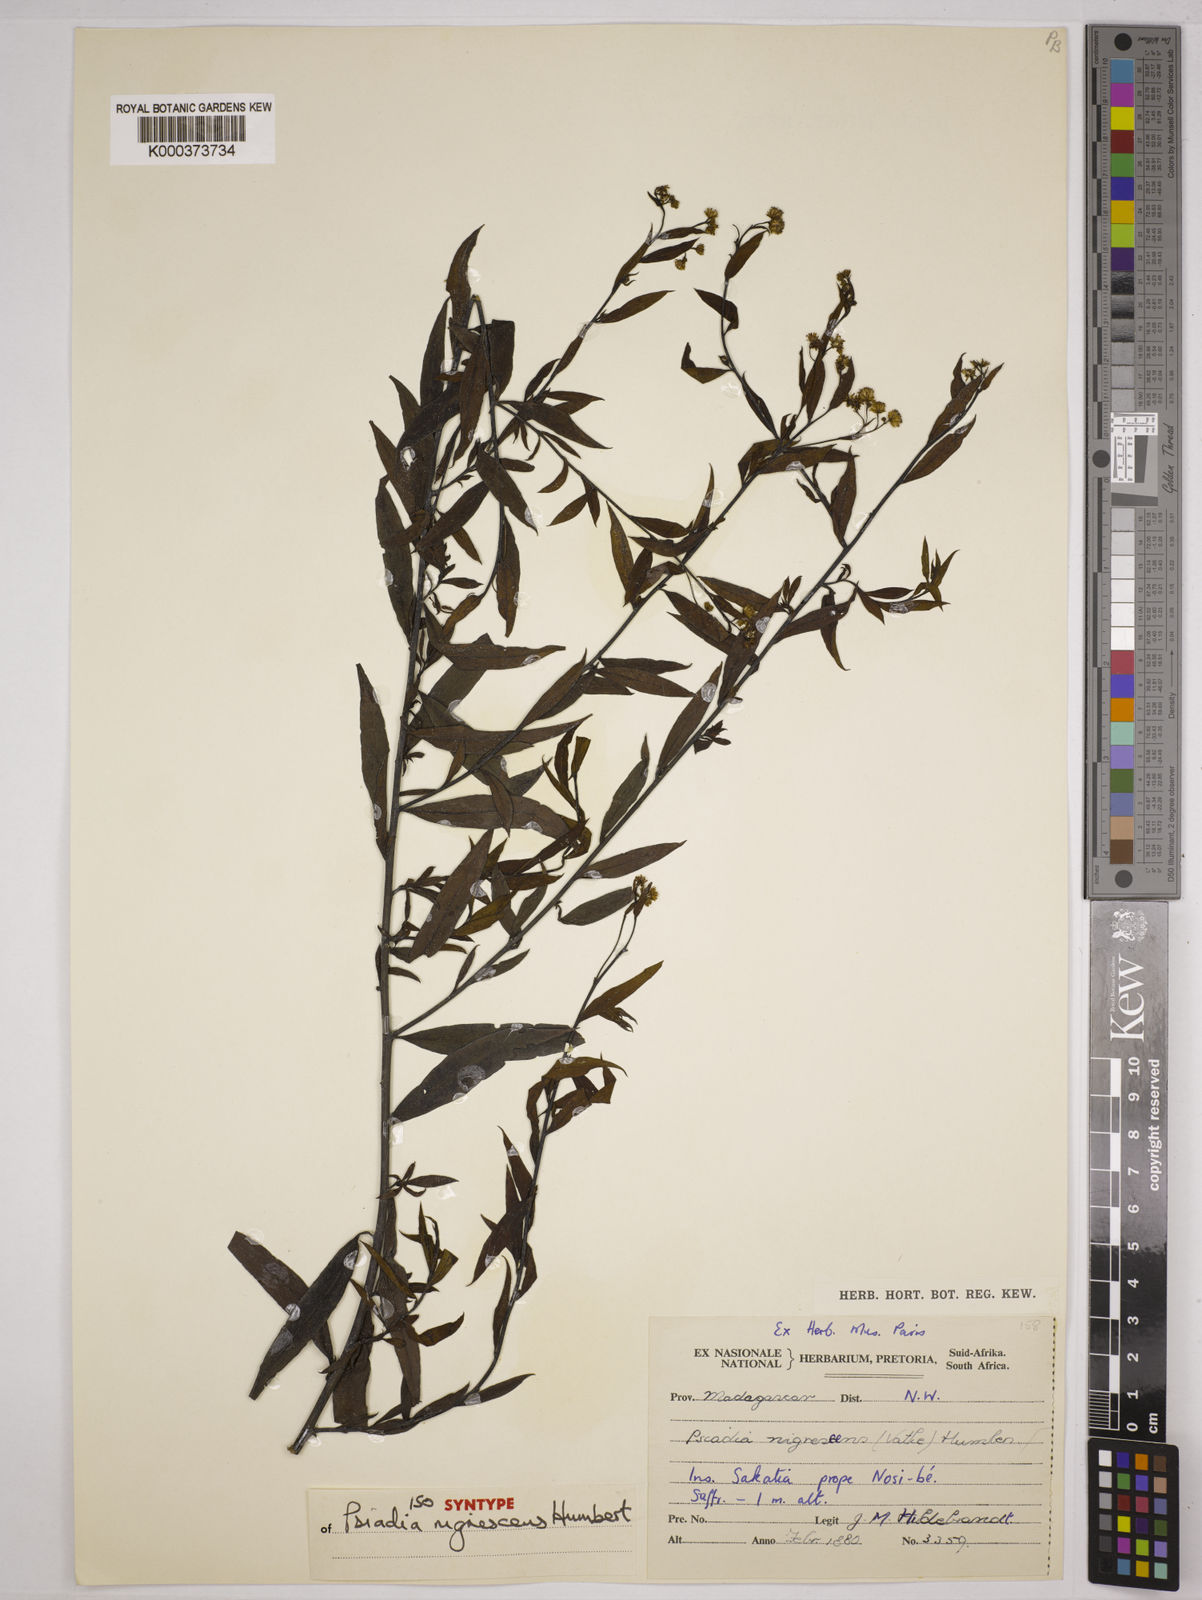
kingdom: Plantae
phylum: Tracheophyta
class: Magnoliopsida
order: Asterales
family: Asteraceae
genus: Psiadia
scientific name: Psiadia nigrescens
